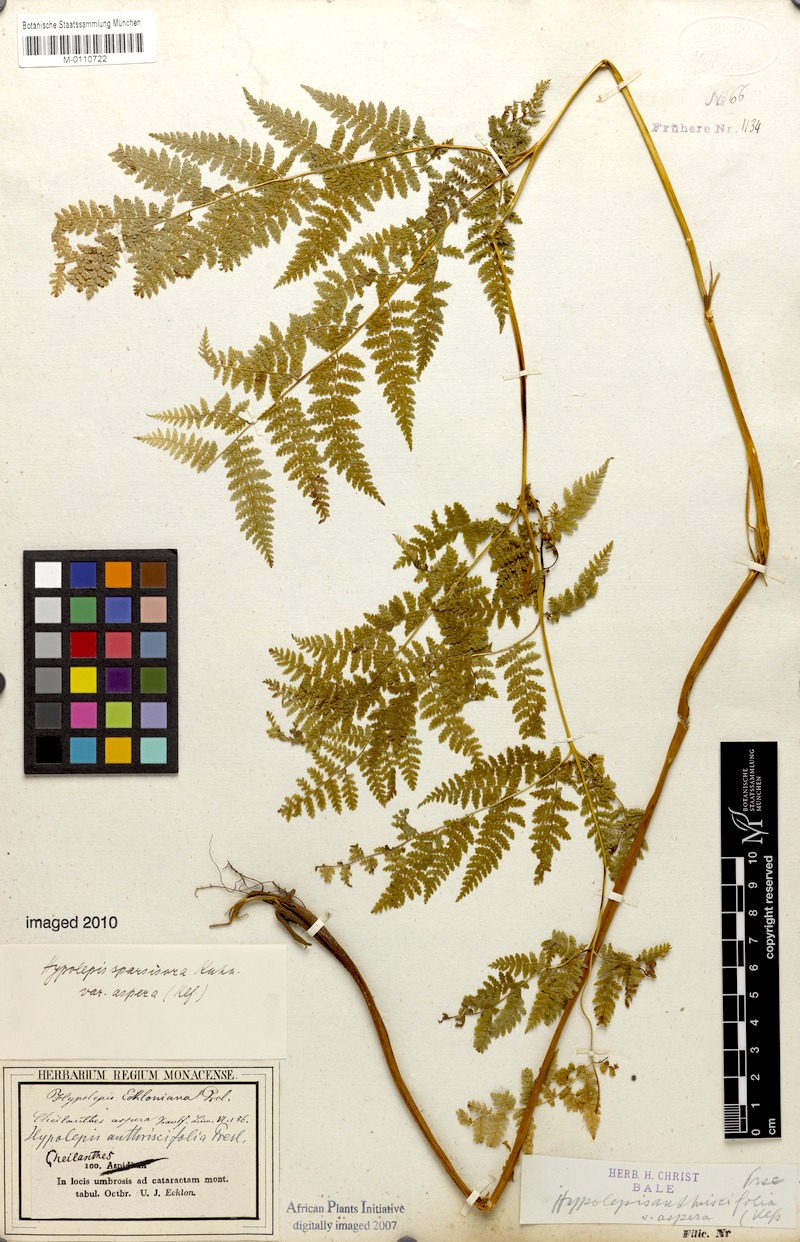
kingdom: Plantae
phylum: Tracheophyta
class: Polypodiopsida
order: Polypodiales
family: Dennstaedtiaceae
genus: Hypolepis
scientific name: Hypolepis sparsisora
